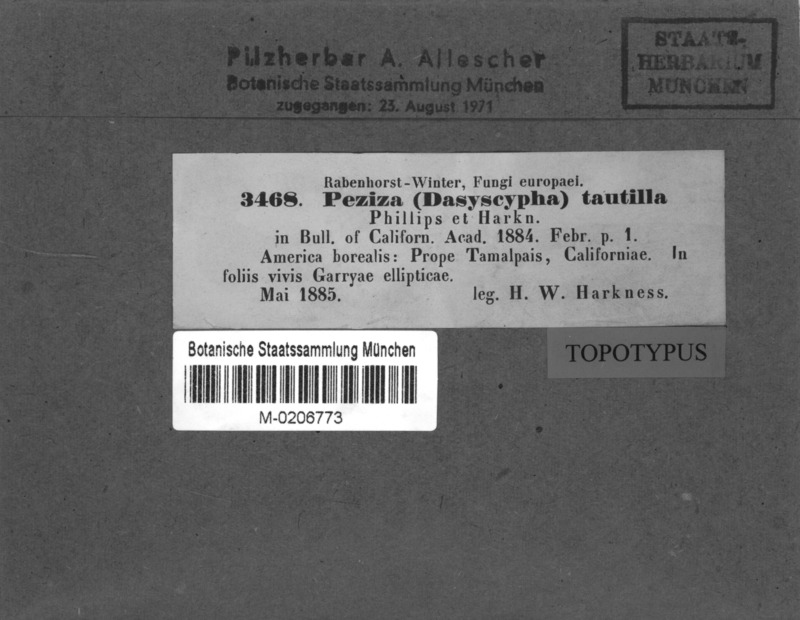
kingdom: Plantae
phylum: Tracheophyta
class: Magnoliopsida
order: Garryales
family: Garryaceae
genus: Garrya
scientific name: Garrya elliptica
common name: Silk-tassel
